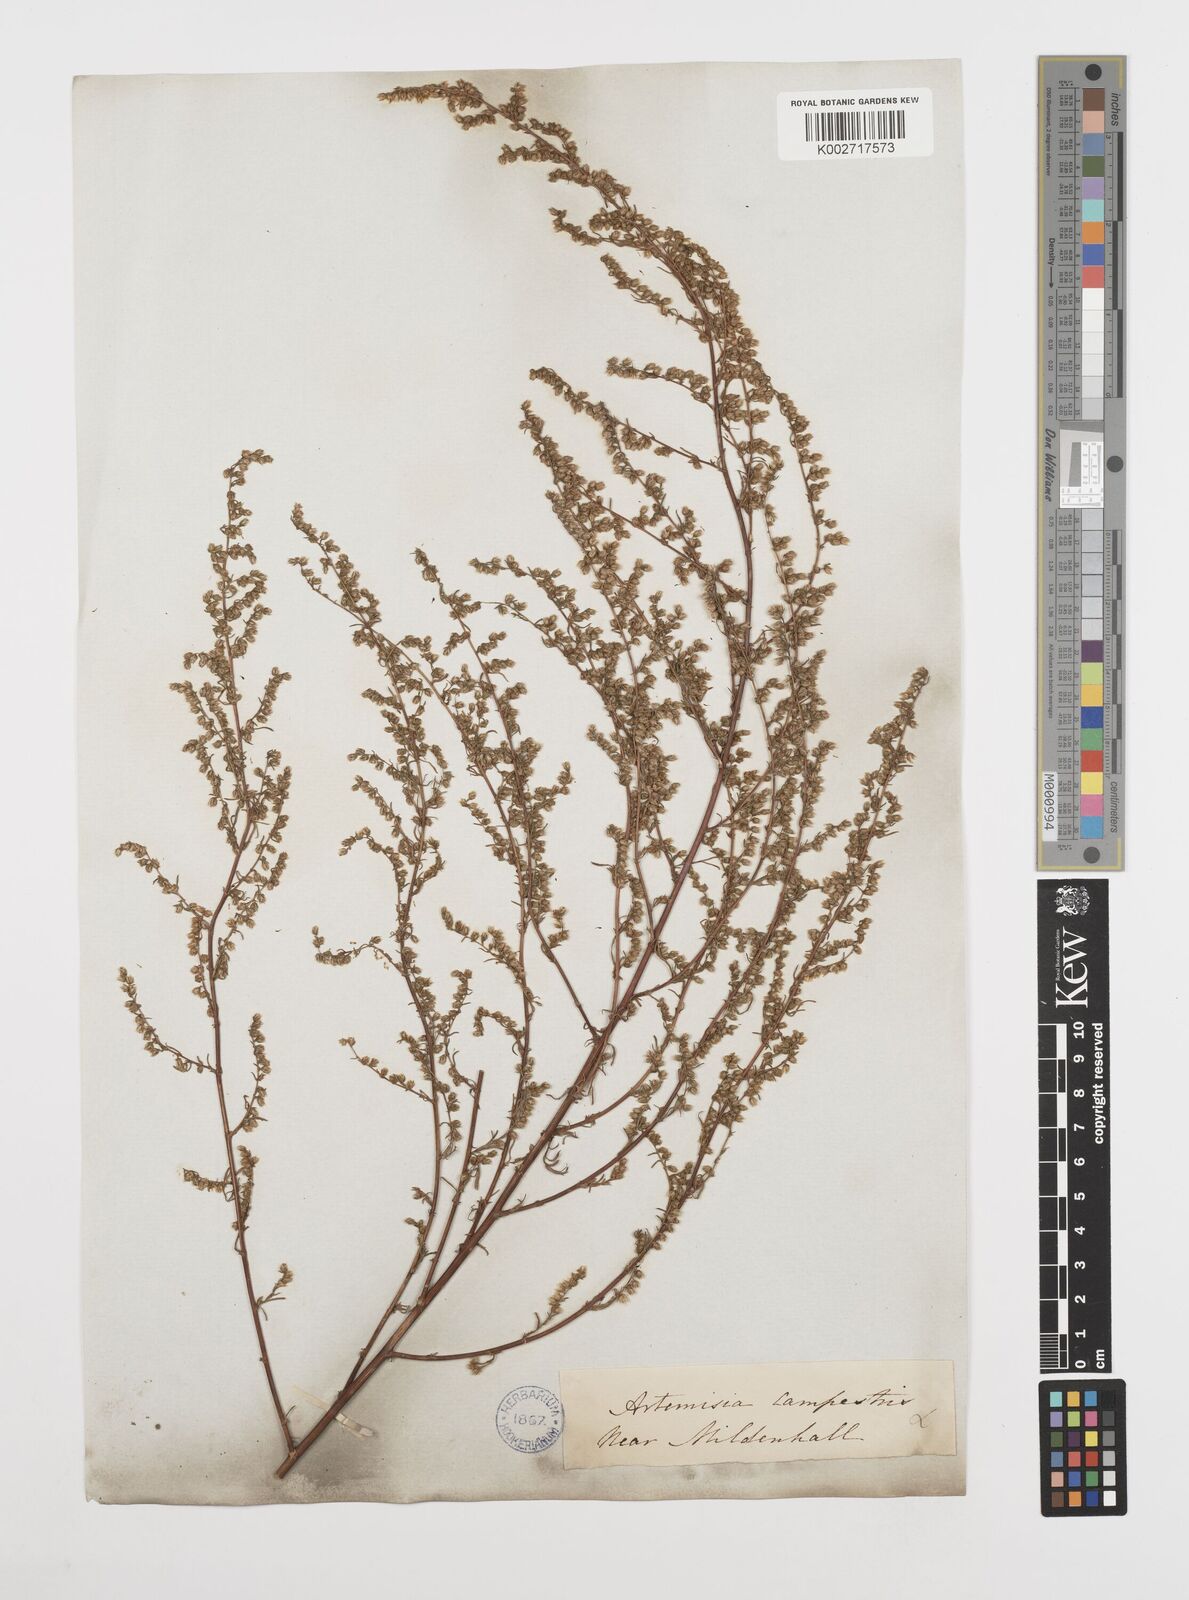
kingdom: Plantae
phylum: Tracheophyta
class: Magnoliopsida
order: Asterales
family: Asteraceae
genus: Artemisia
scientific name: Artemisia campestris
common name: Field wormwood
